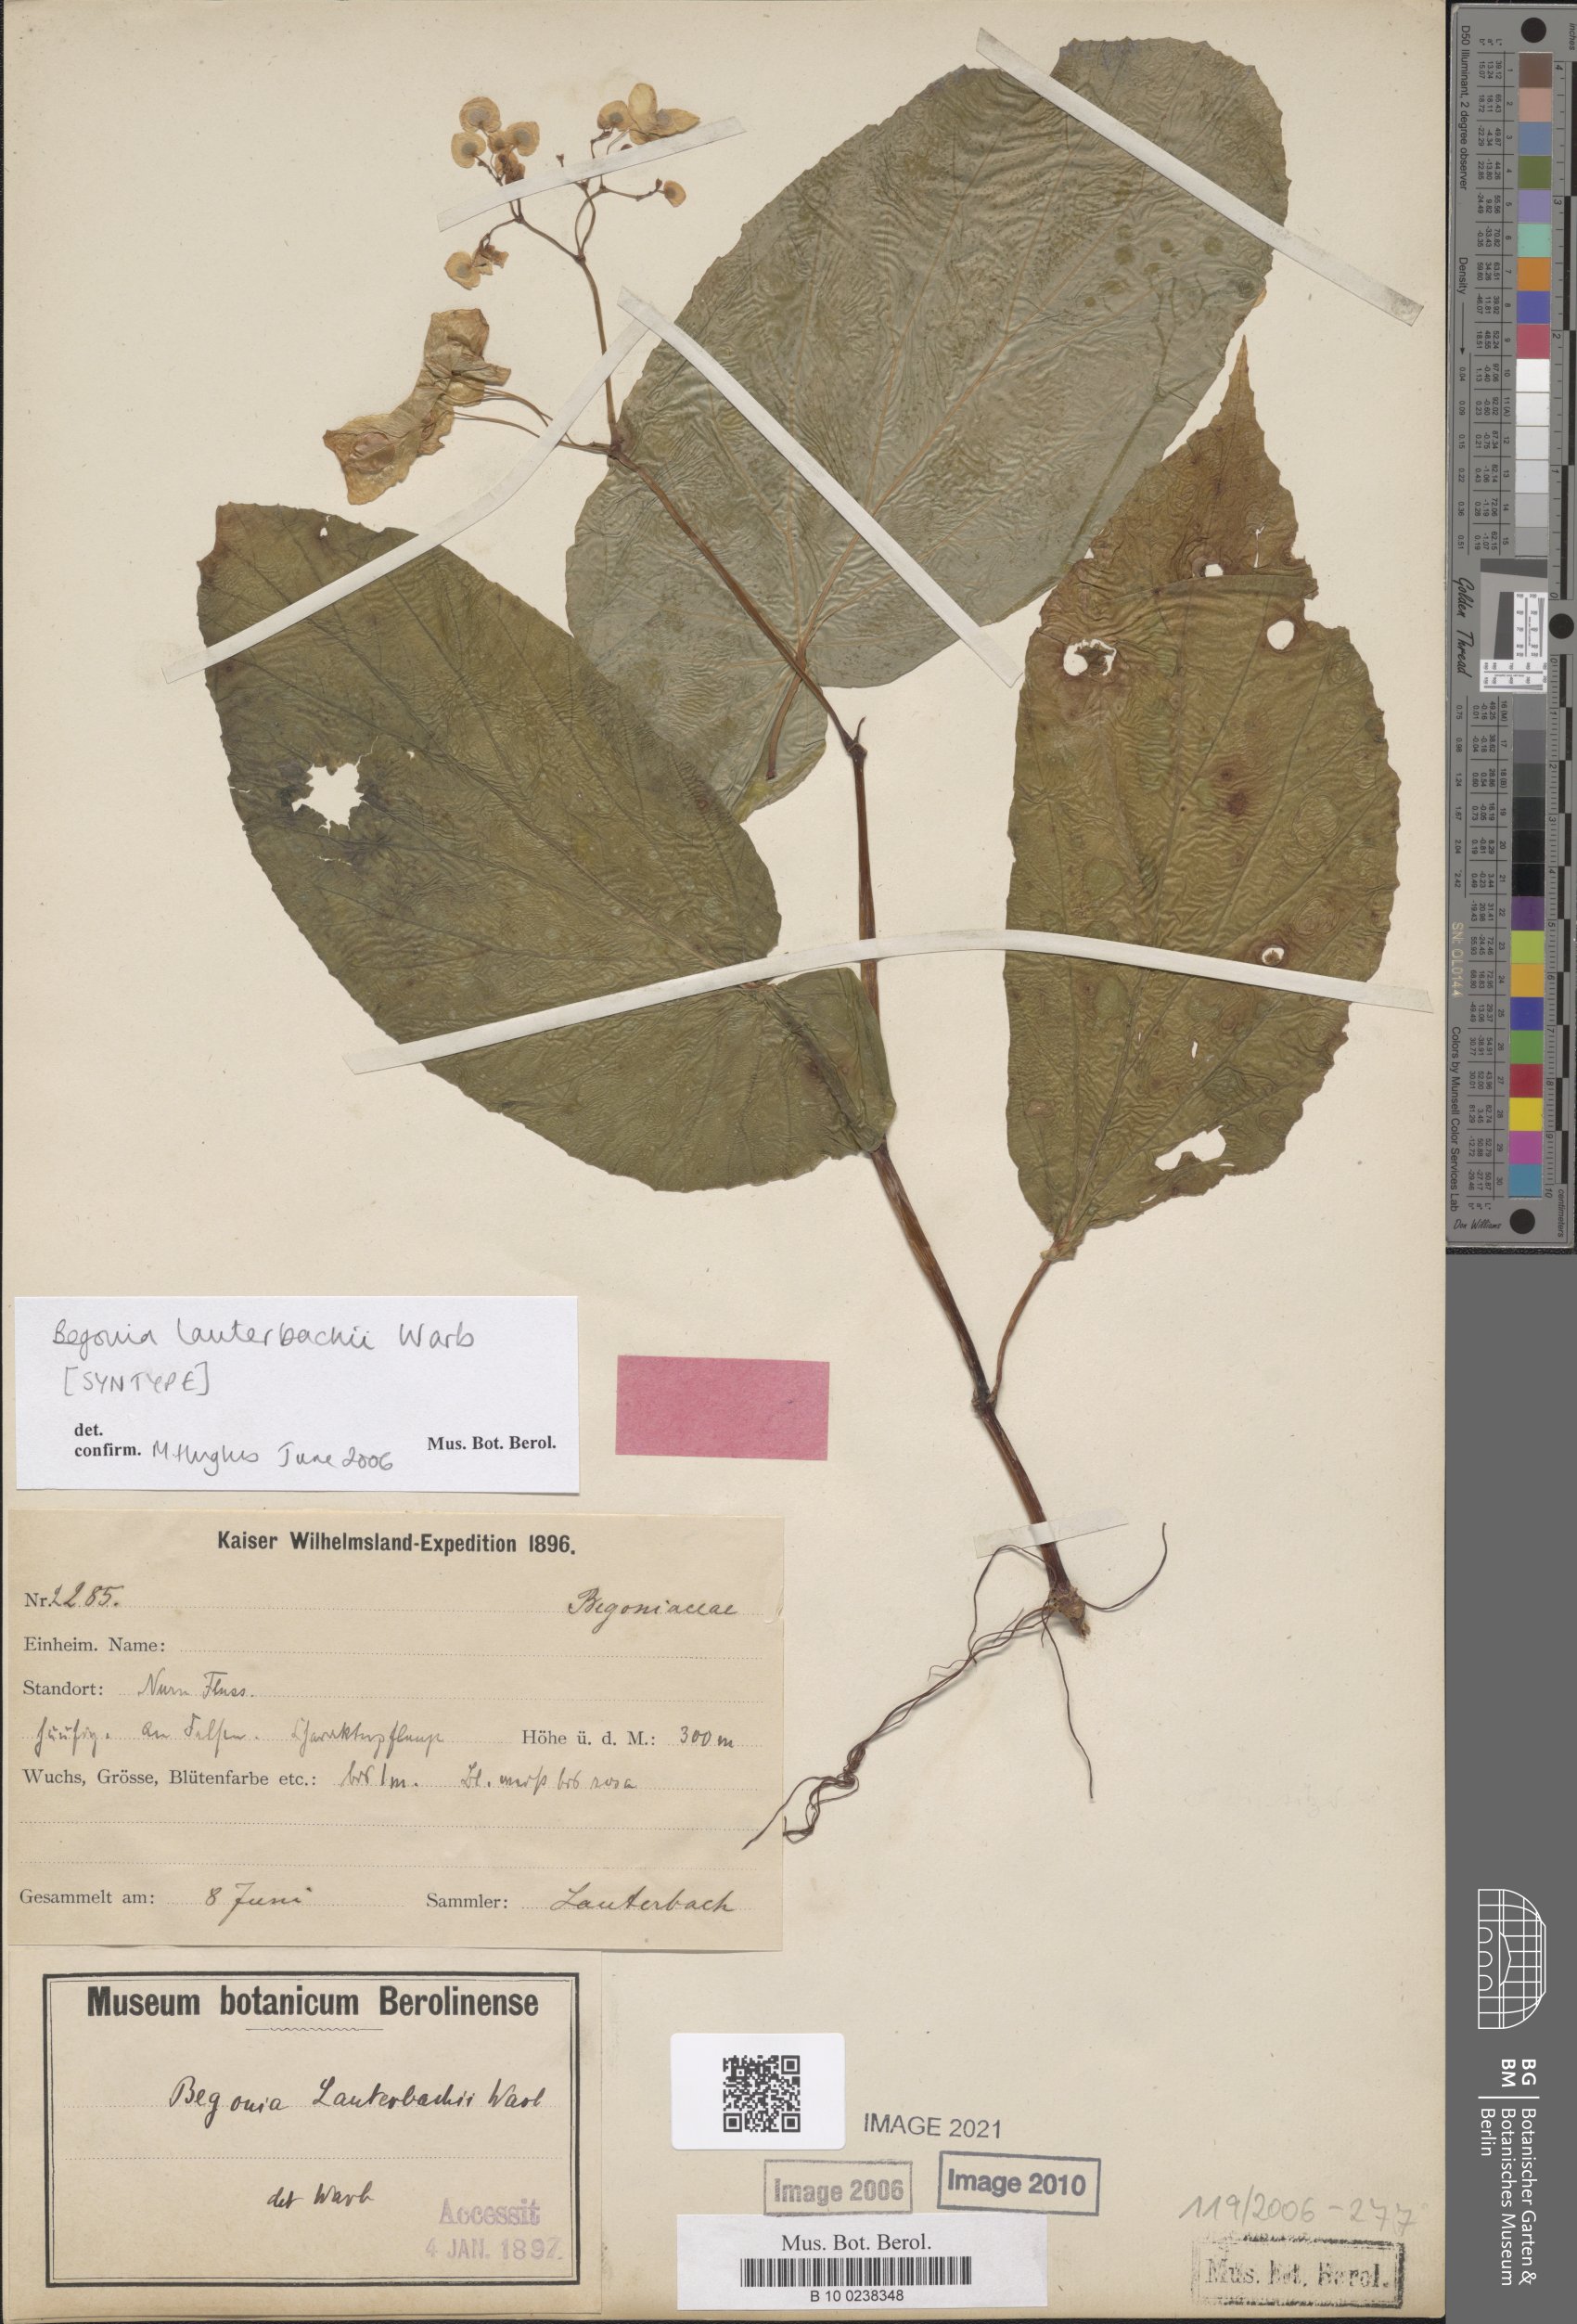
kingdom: Plantae
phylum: Tracheophyta
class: Magnoliopsida
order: Cucurbitales
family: Begoniaceae
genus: Begonia
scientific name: Begonia lauterbachii
